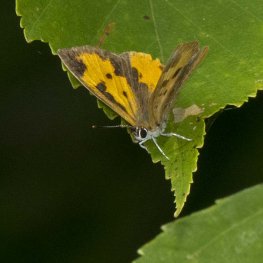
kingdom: Animalia
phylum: Arthropoda
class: Insecta
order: Lepidoptera
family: Lycaenidae
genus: Feniseca
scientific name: Feniseca tarquinius
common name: Harvester
